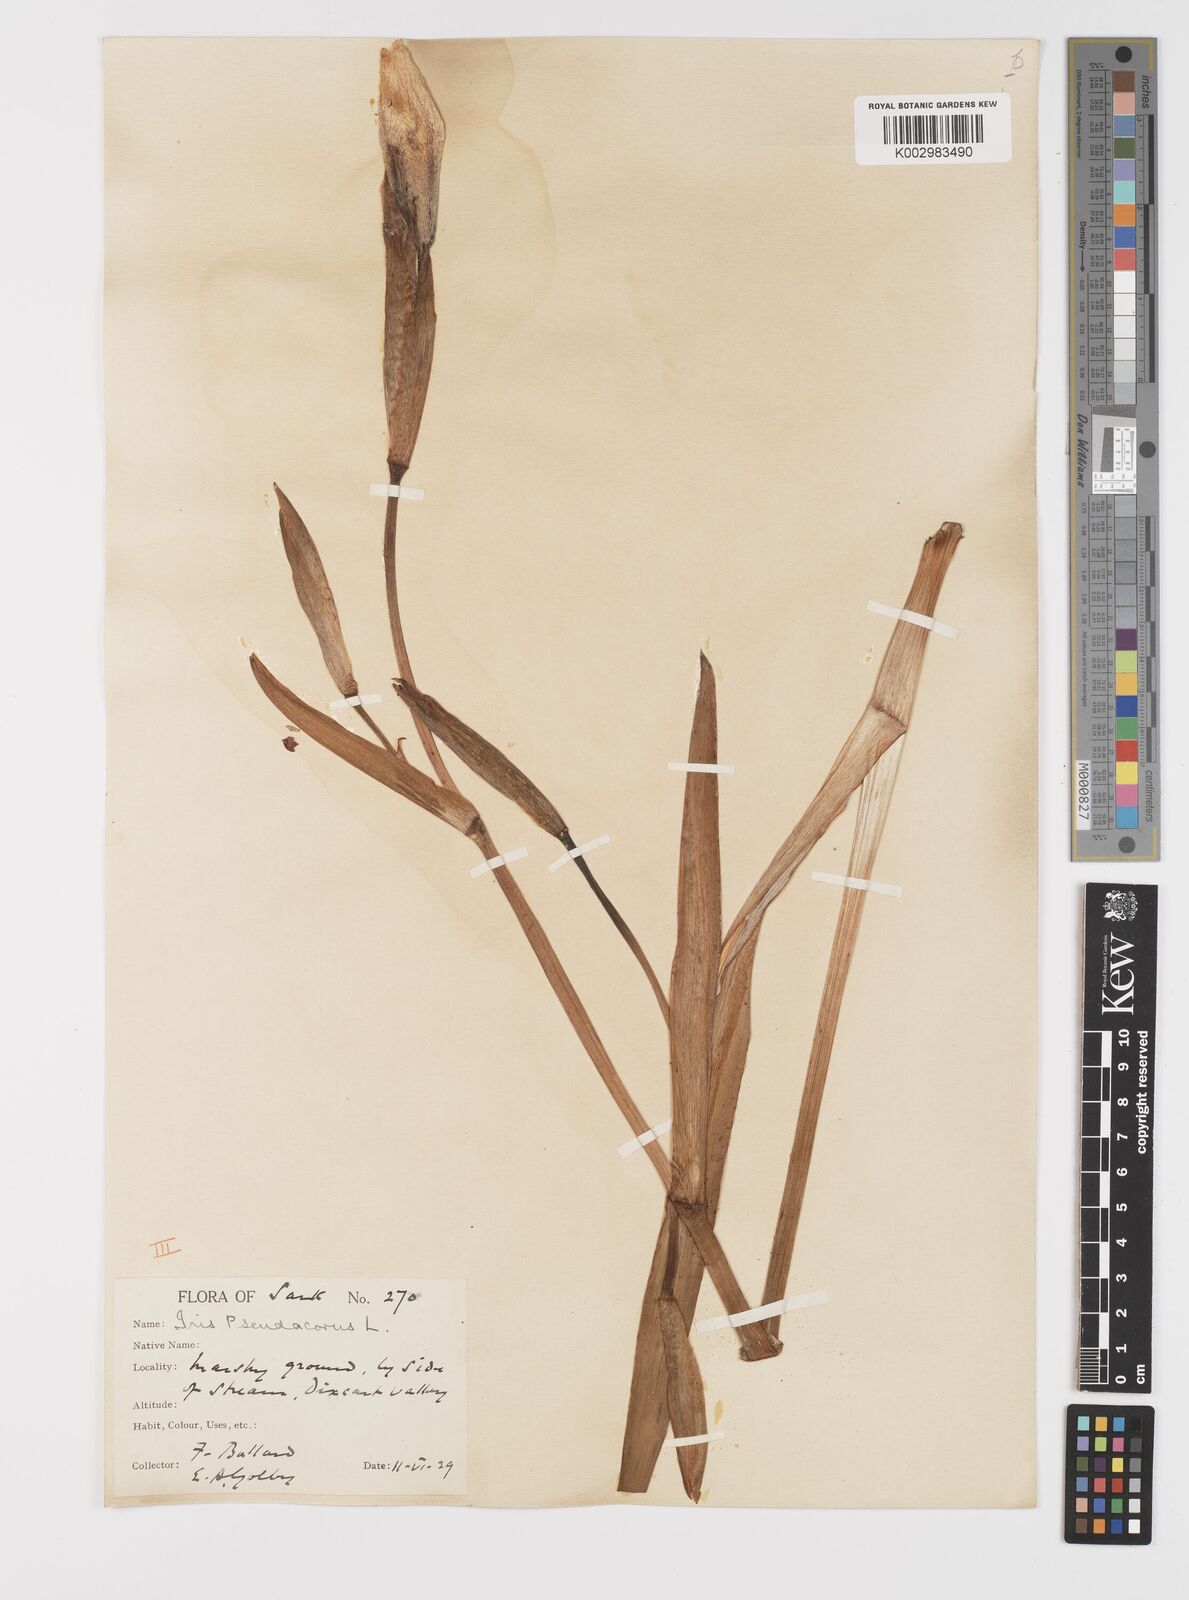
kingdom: Plantae
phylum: Tracheophyta
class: Liliopsida
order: Asparagales
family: Iridaceae
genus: Iris
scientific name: Iris pseudacorus
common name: Yellow flag
